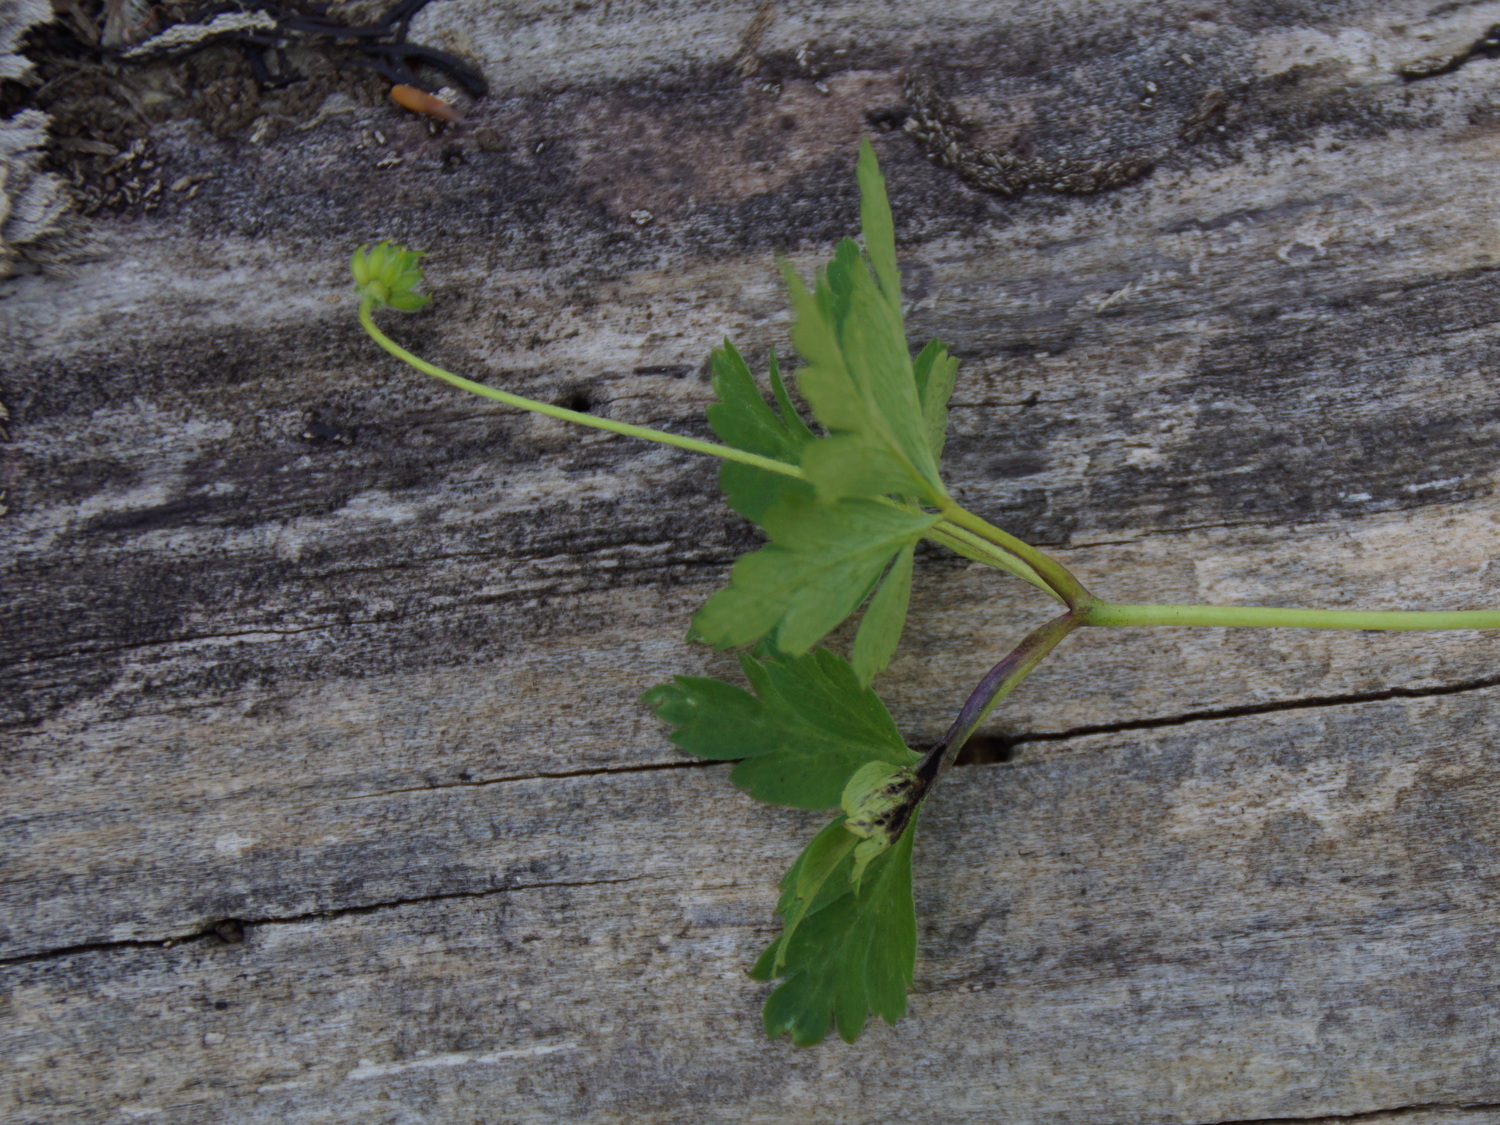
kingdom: Fungi
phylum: Basidiomycota
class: Ustilaginomycetes
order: Urocystidales
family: Urocystidaceae
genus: Urocystis
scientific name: Urocystis anemones
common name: anemone-brand
